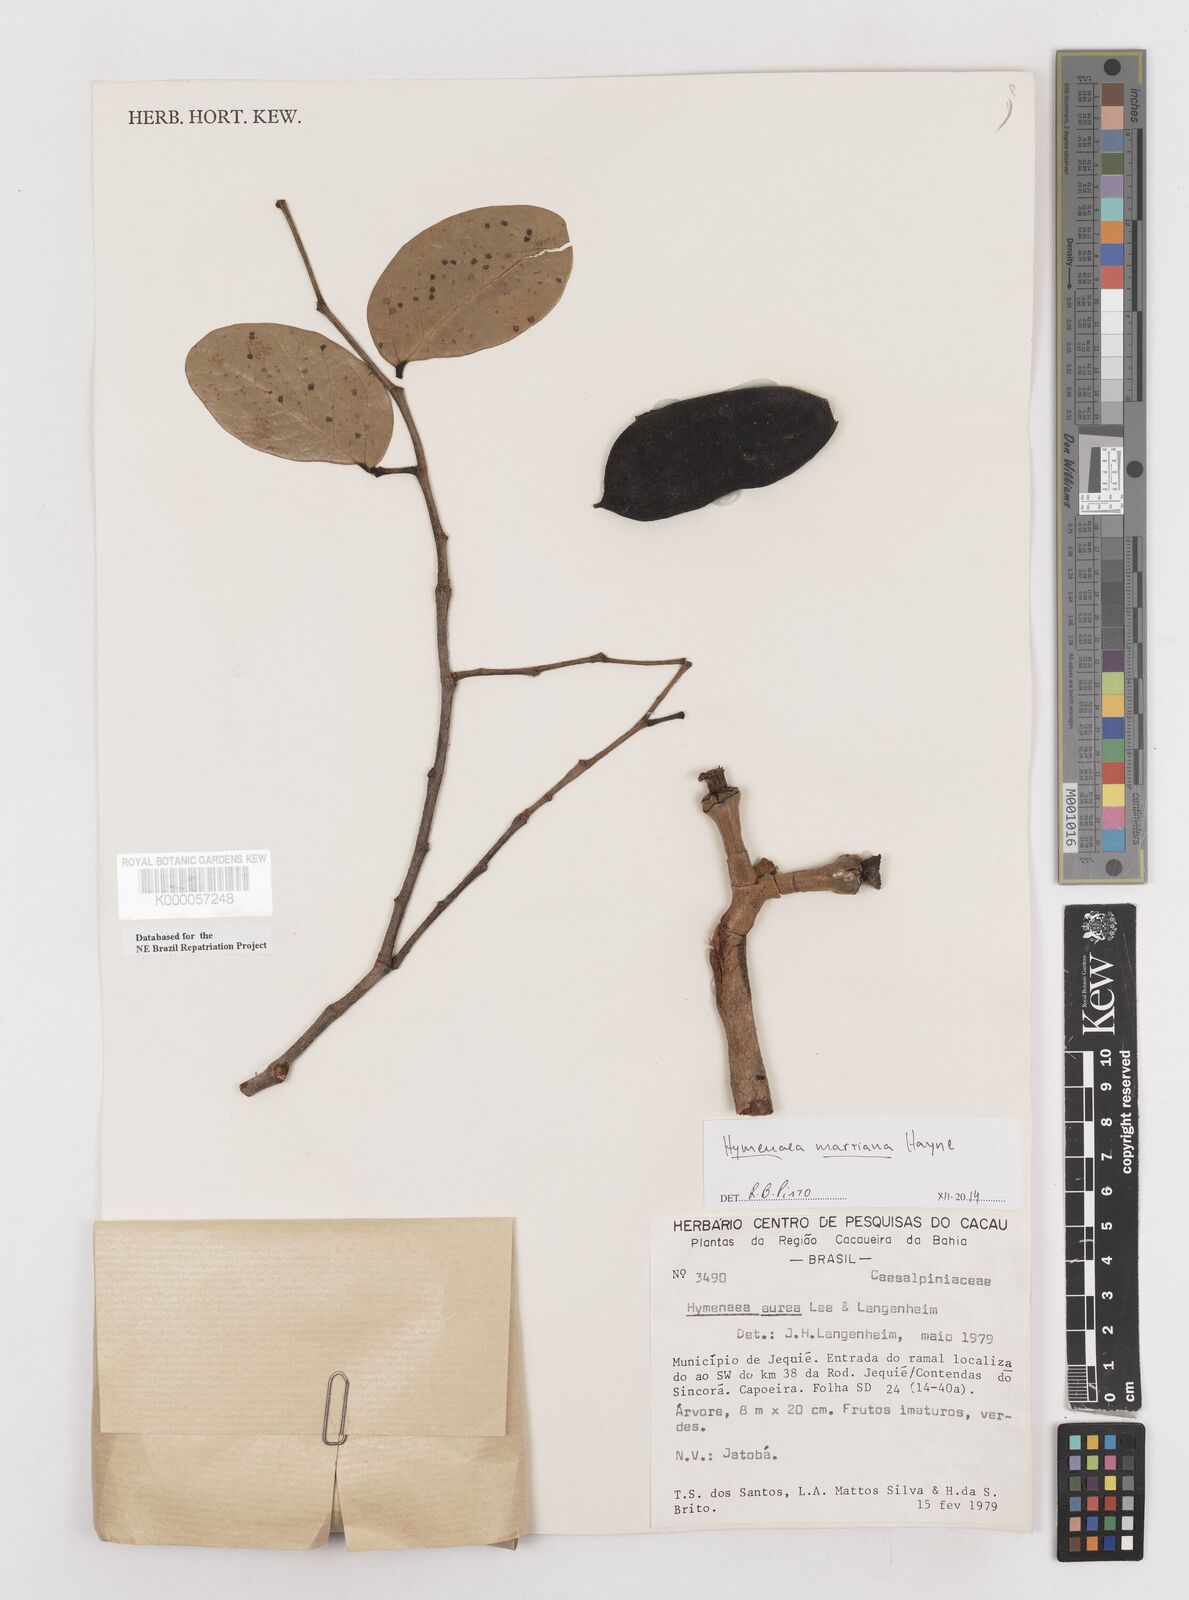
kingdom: Plantae
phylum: Tracheophyta
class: Magnoliopsida
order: Fabales
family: Fabaceae
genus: Hymenaea
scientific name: Hymenaea martiana
